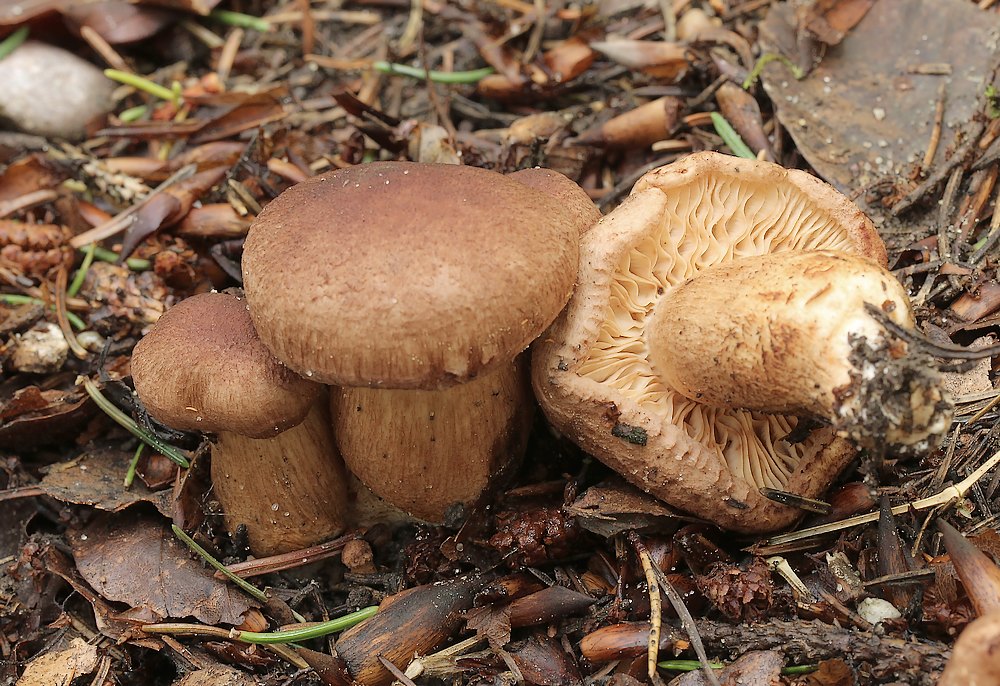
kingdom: Fungi
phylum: Basidiomycota
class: Agaricomycetes
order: Agaricales
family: Tricholomataceae
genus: Tricholoma
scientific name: Tricholoma vaccinum
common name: ko-ridderhat
